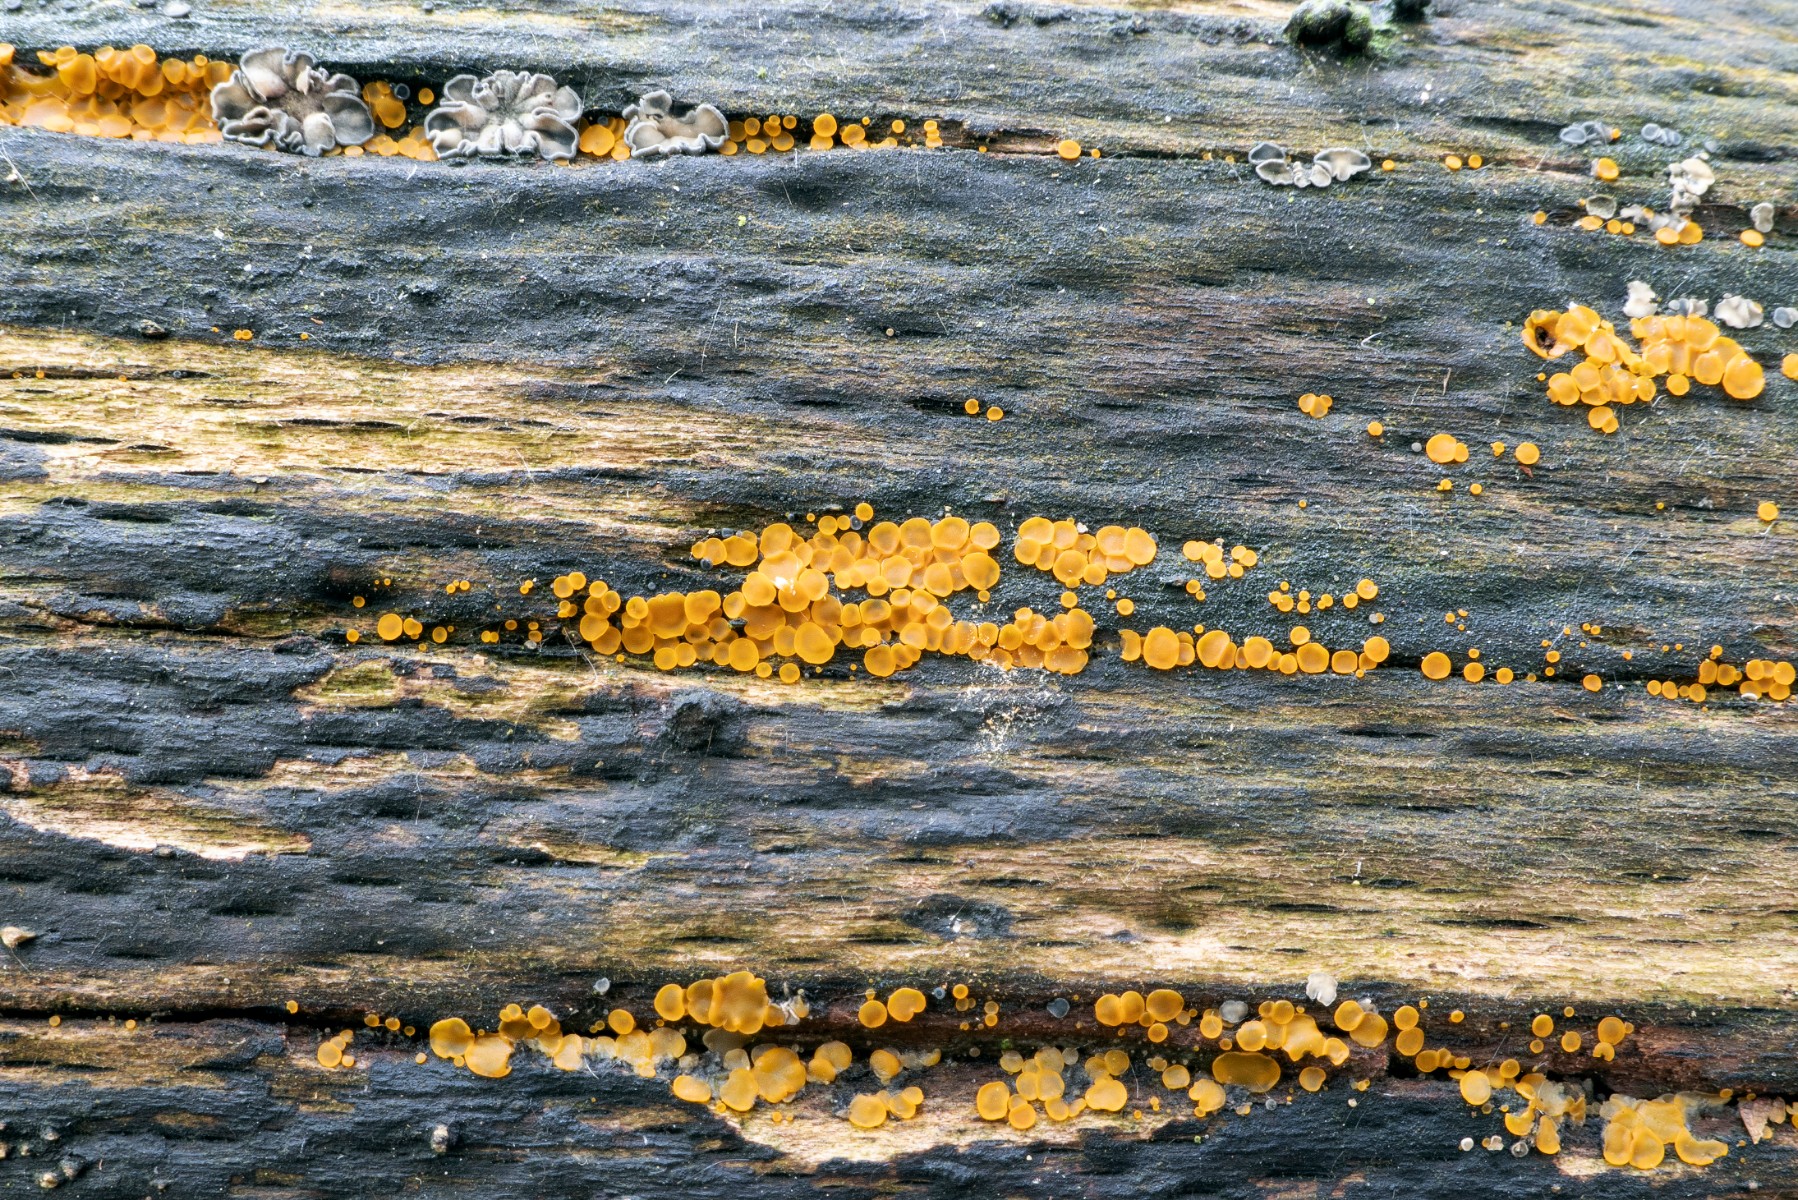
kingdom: Fungi
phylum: Ascomycota
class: Orbiliomycetes
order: Orbiliales
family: Orbiliaceae
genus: Orbilia
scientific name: Orbilia xanthostigma
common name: krumsporet voksskive
